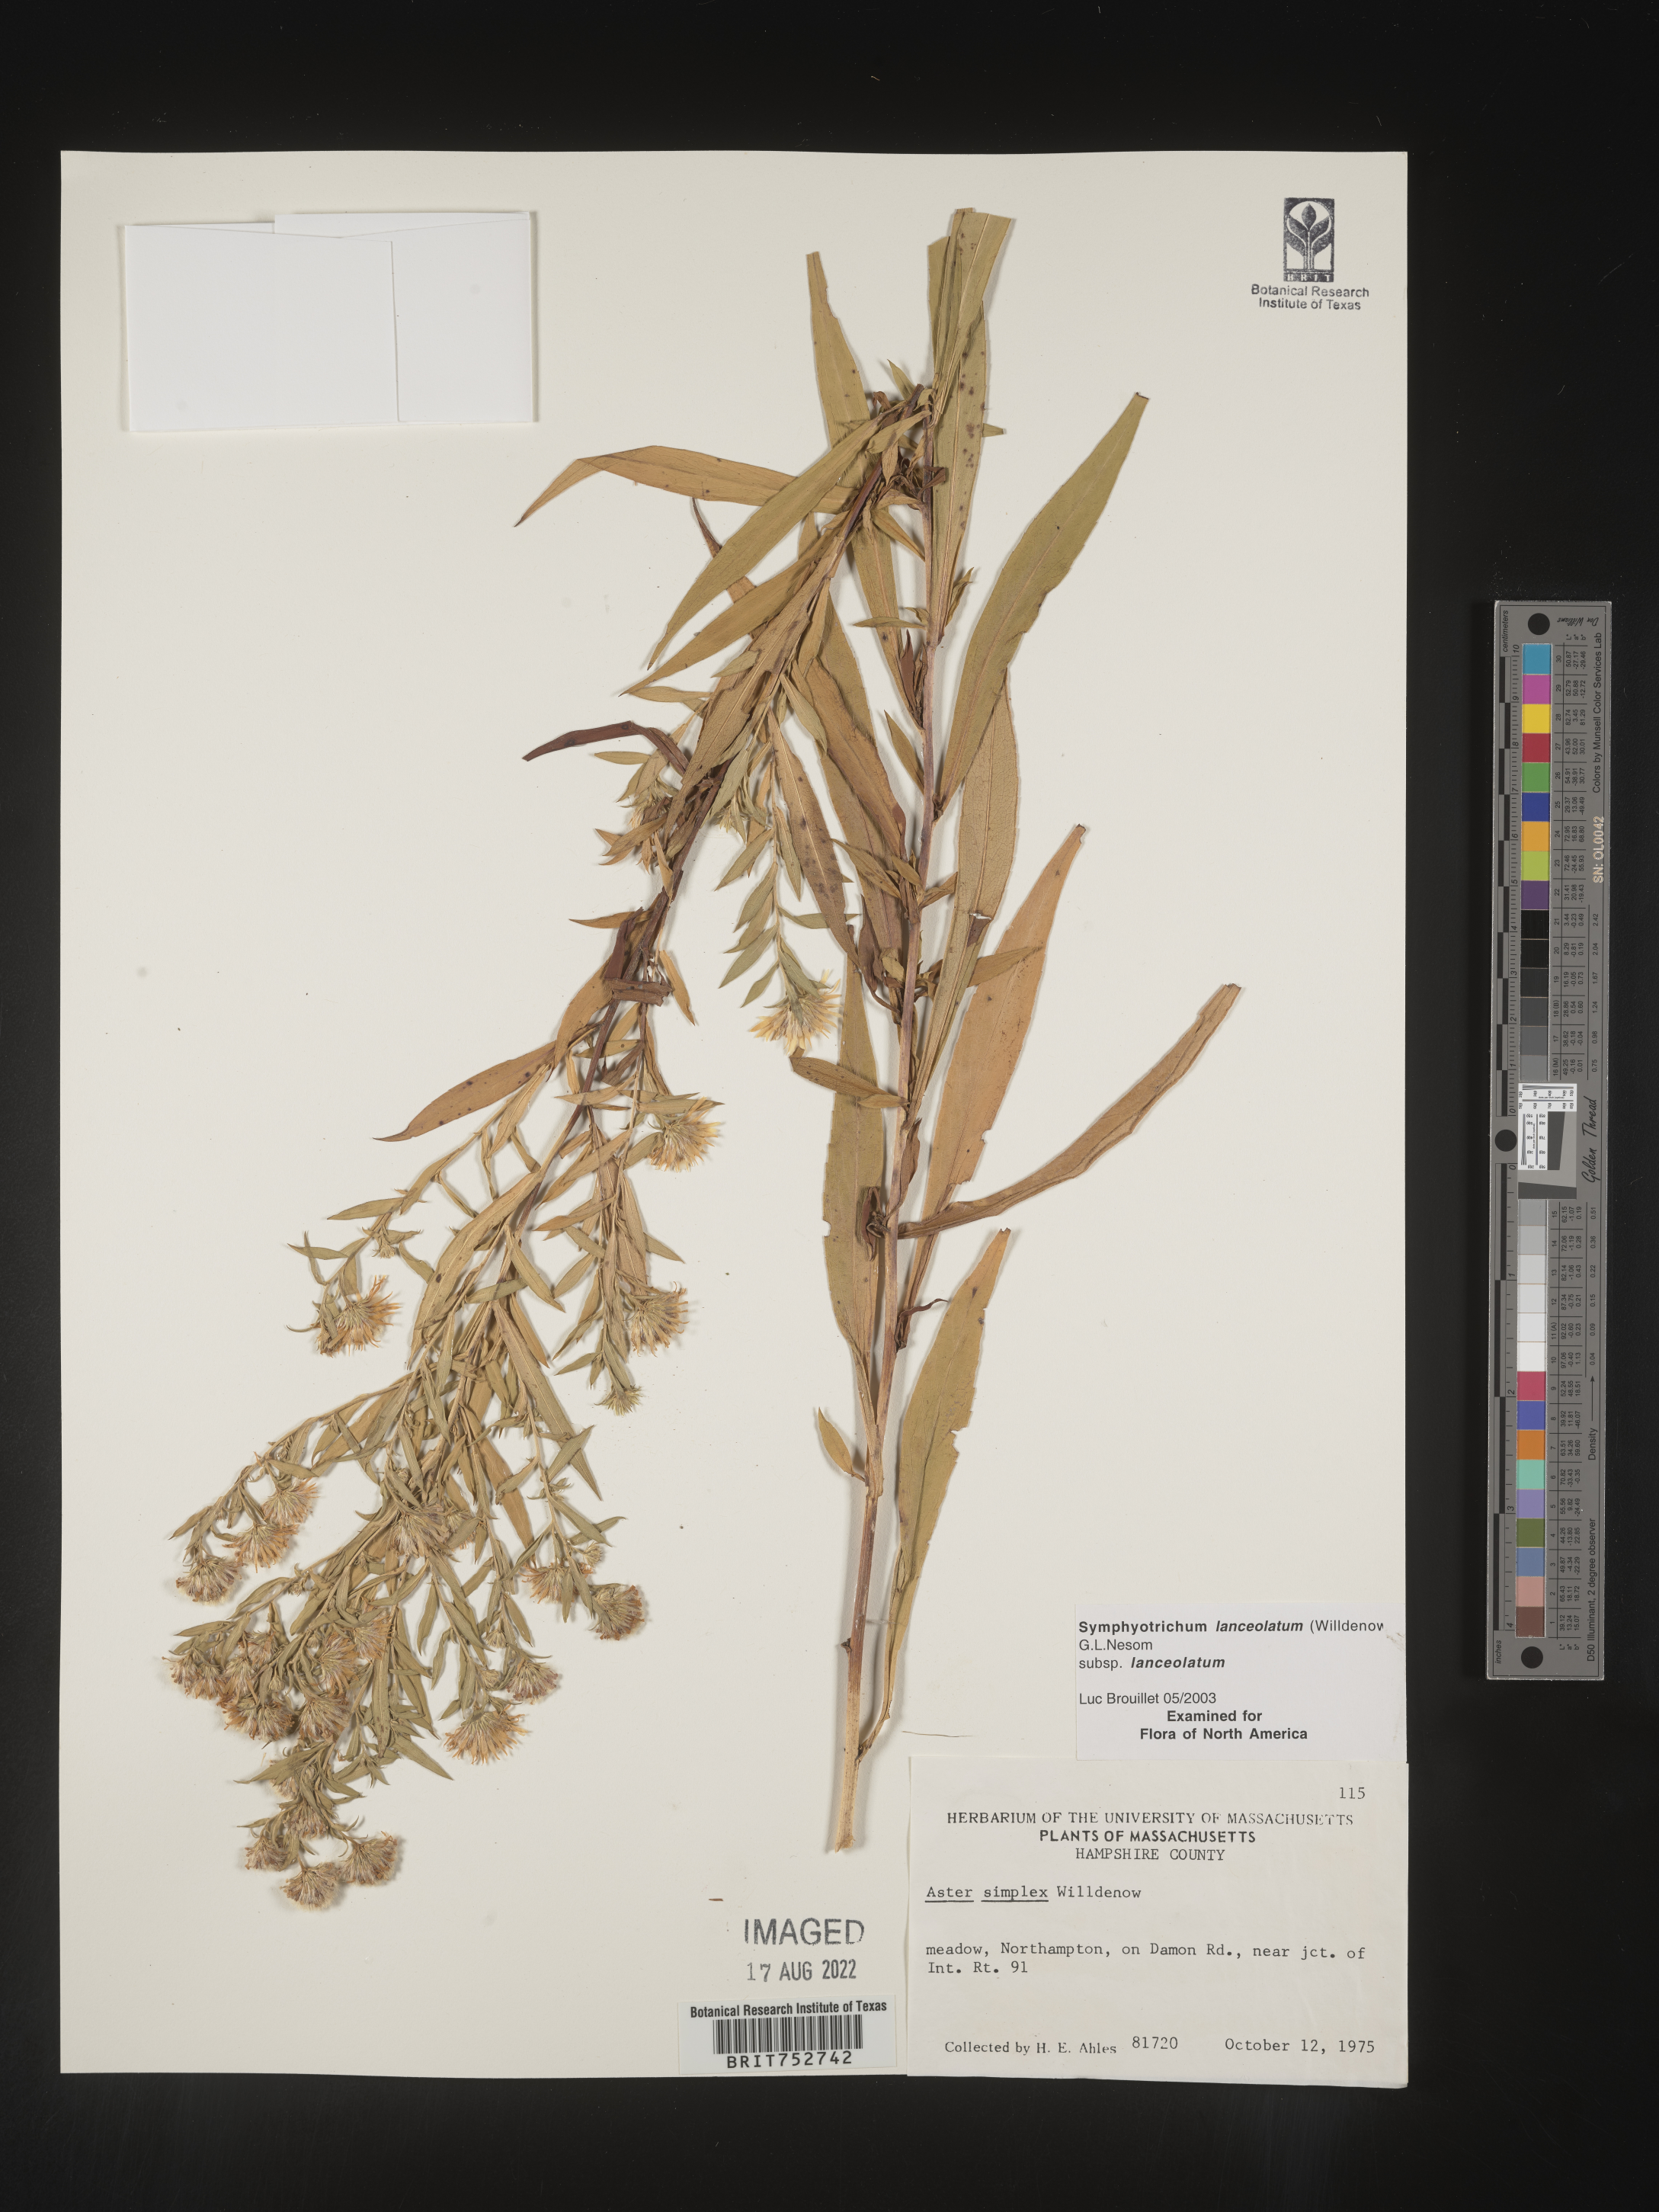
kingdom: Plantae
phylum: Tracheophyta
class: Magnoliopsida
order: Asterales
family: Asteraceae
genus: Symphyotrichum
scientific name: Symphyotrichum lanceolatum
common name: Panicled aster
